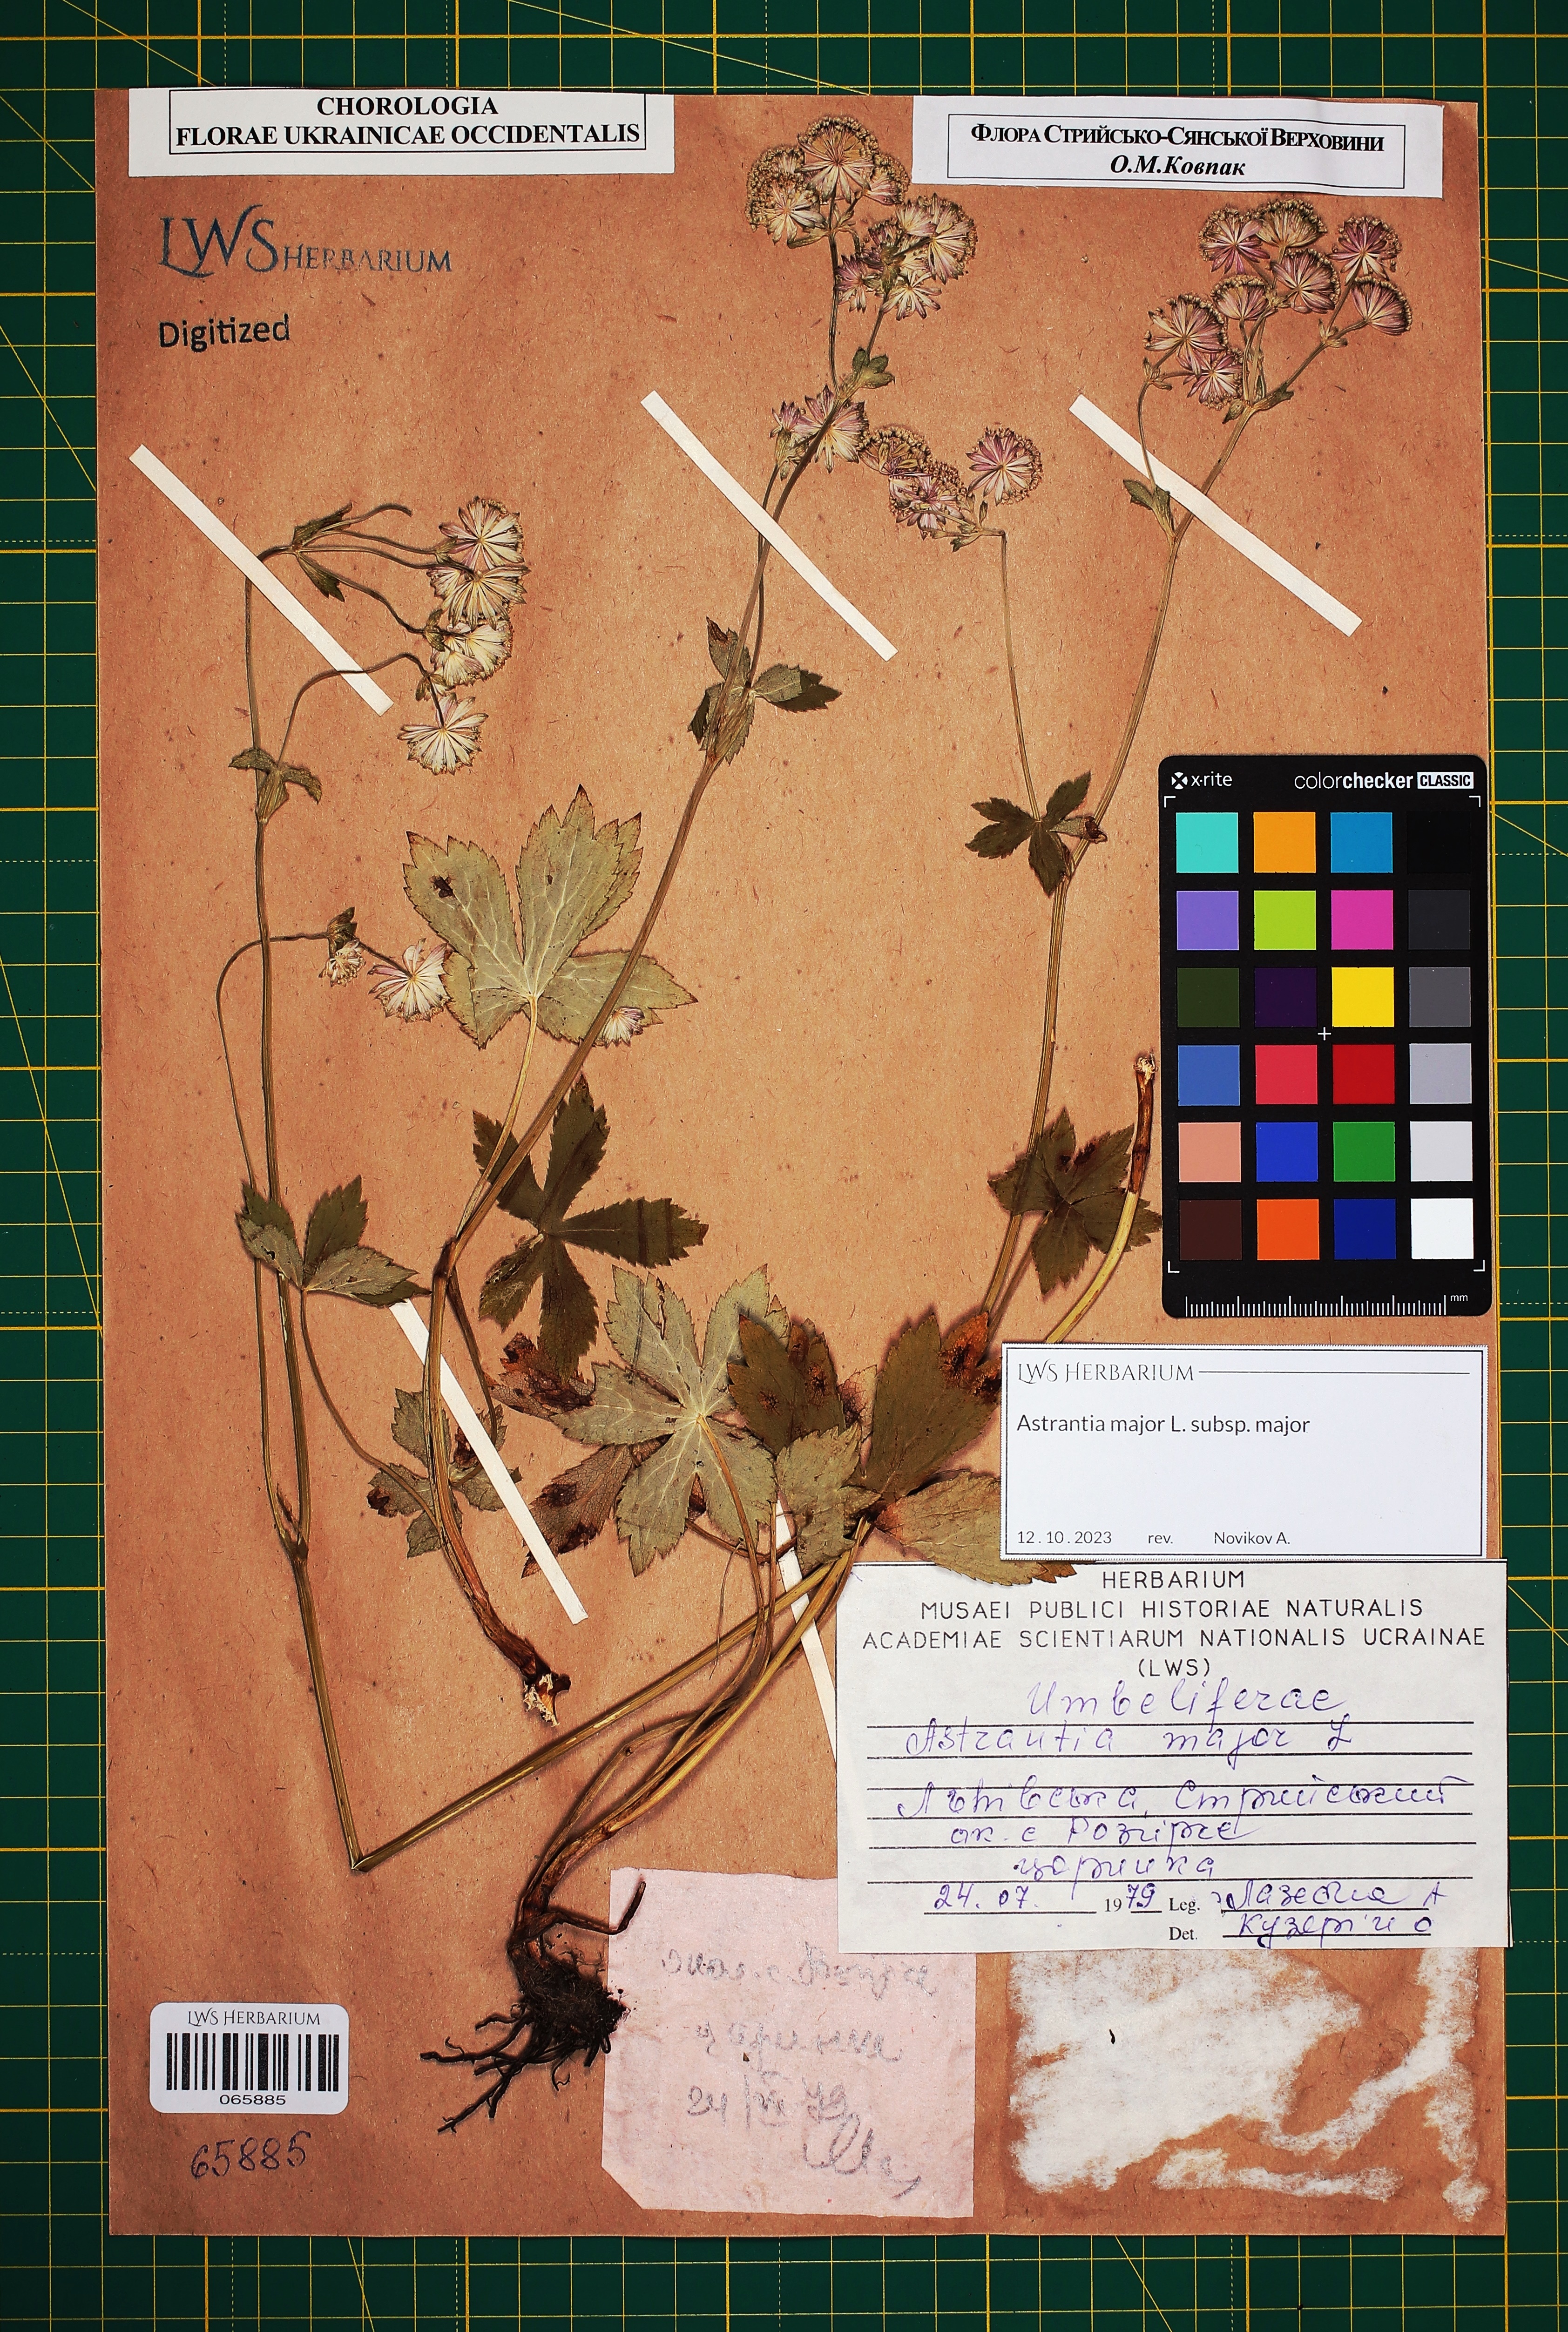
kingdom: Plantae
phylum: Tracheophyta
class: Magnoliopsida
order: Apiales
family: Apiaceae
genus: Astrantia
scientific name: Astrantia major
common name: Greater masterwort
